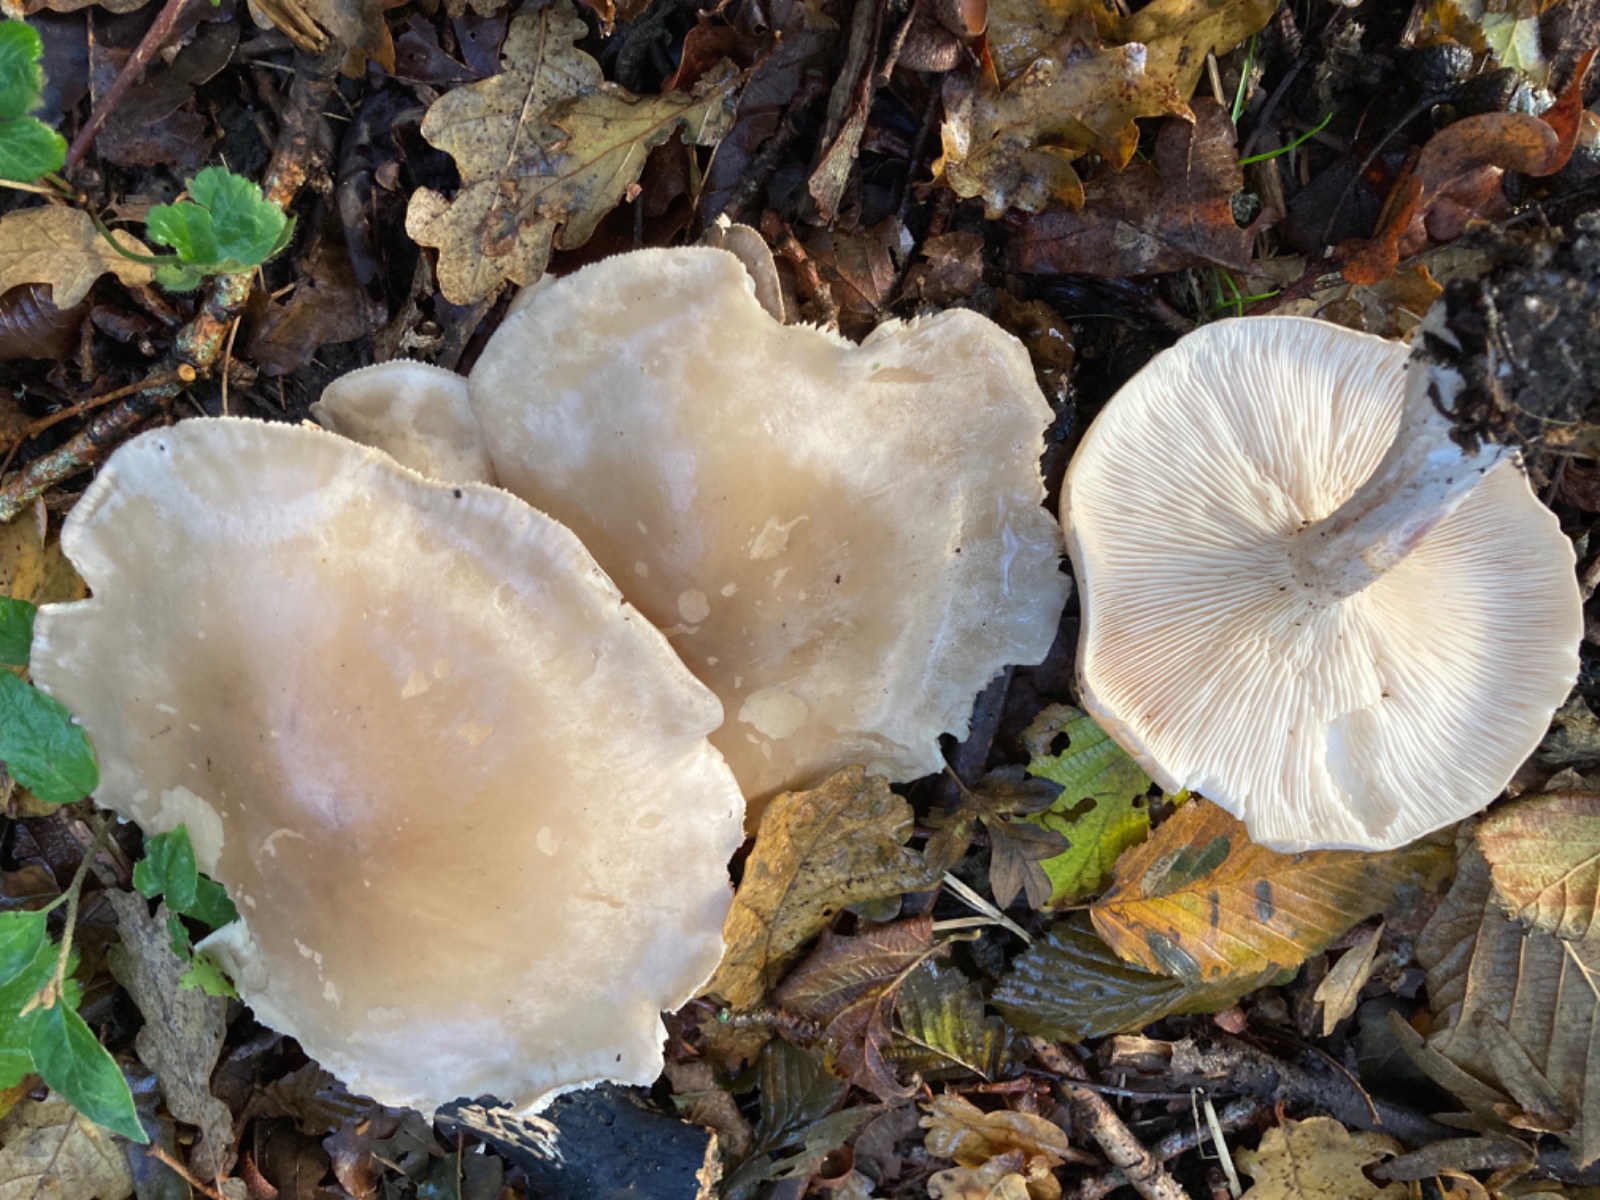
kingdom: Fungi
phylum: Basidiomycota
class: Agaricomycetes
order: Agaricales
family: Tricholomataceae
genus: Clitocybe
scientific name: Clitocybe nebularis
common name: tåge-tragthat
